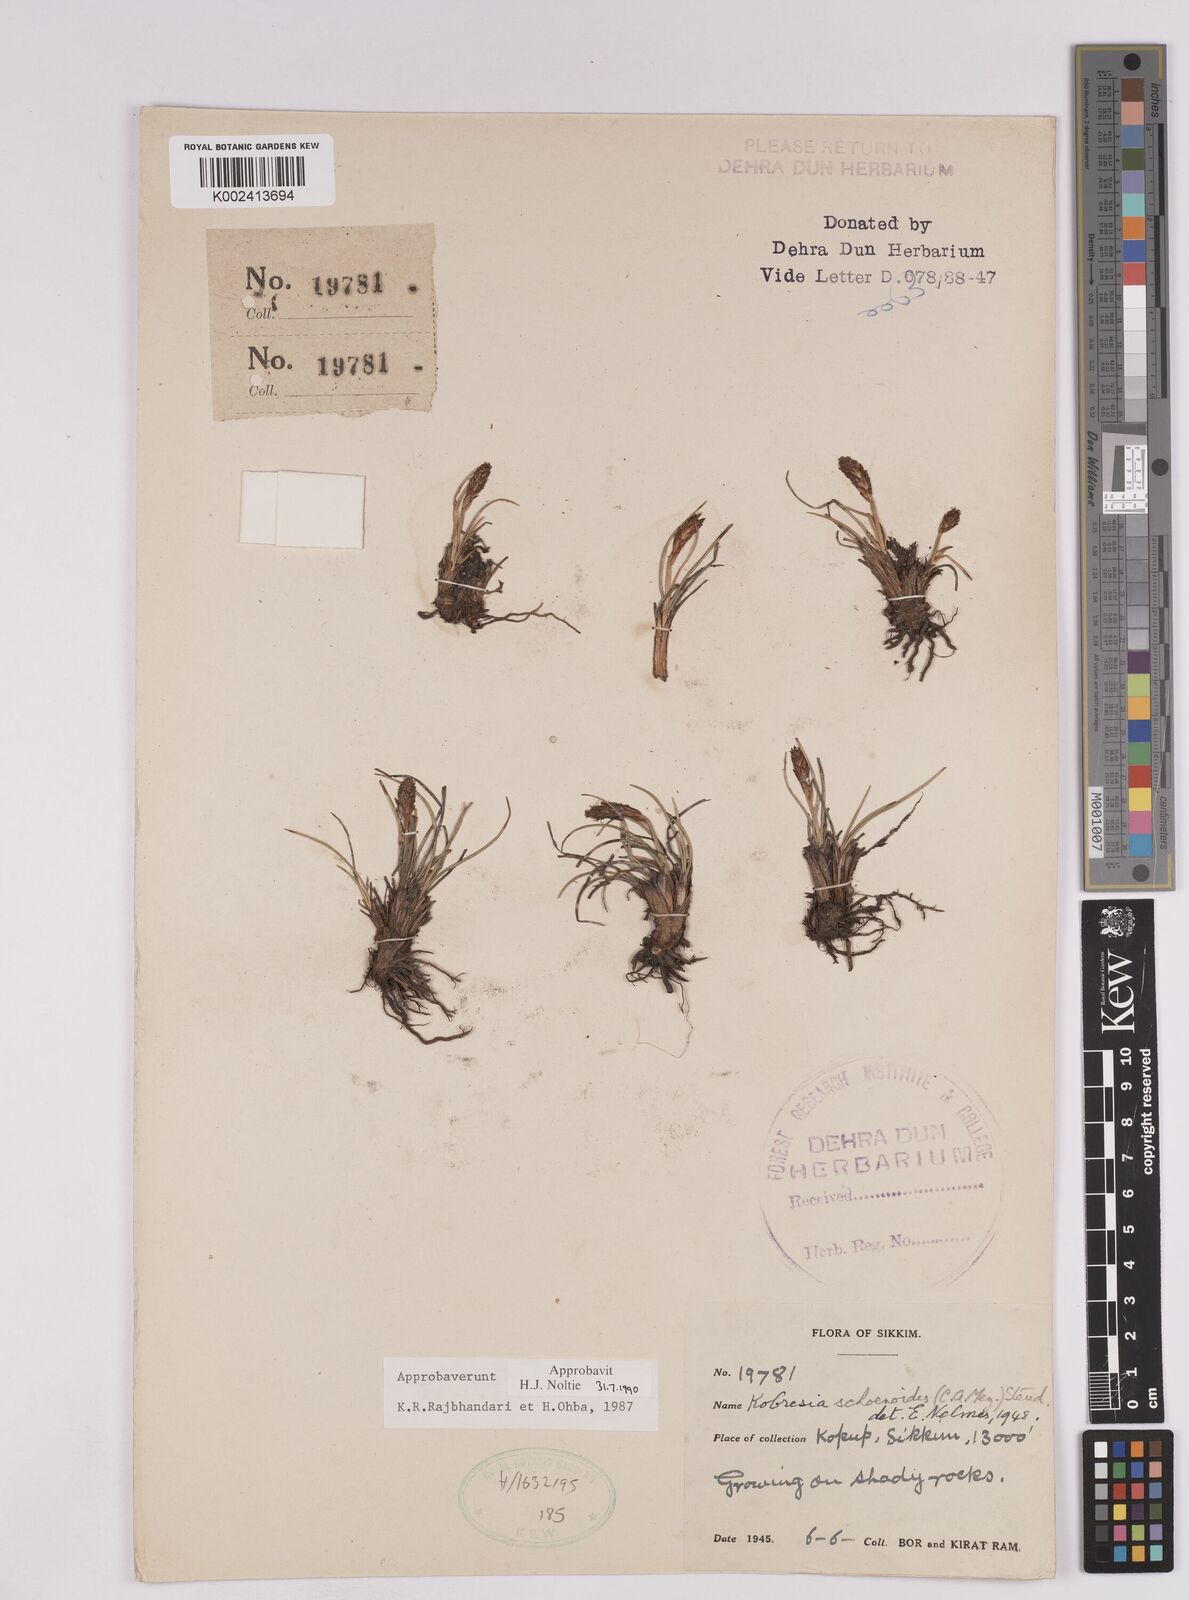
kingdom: Plantae
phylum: Tracheophyta
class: Liliopsida
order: Poales
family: Cyperaceae
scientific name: Cyperaceae
